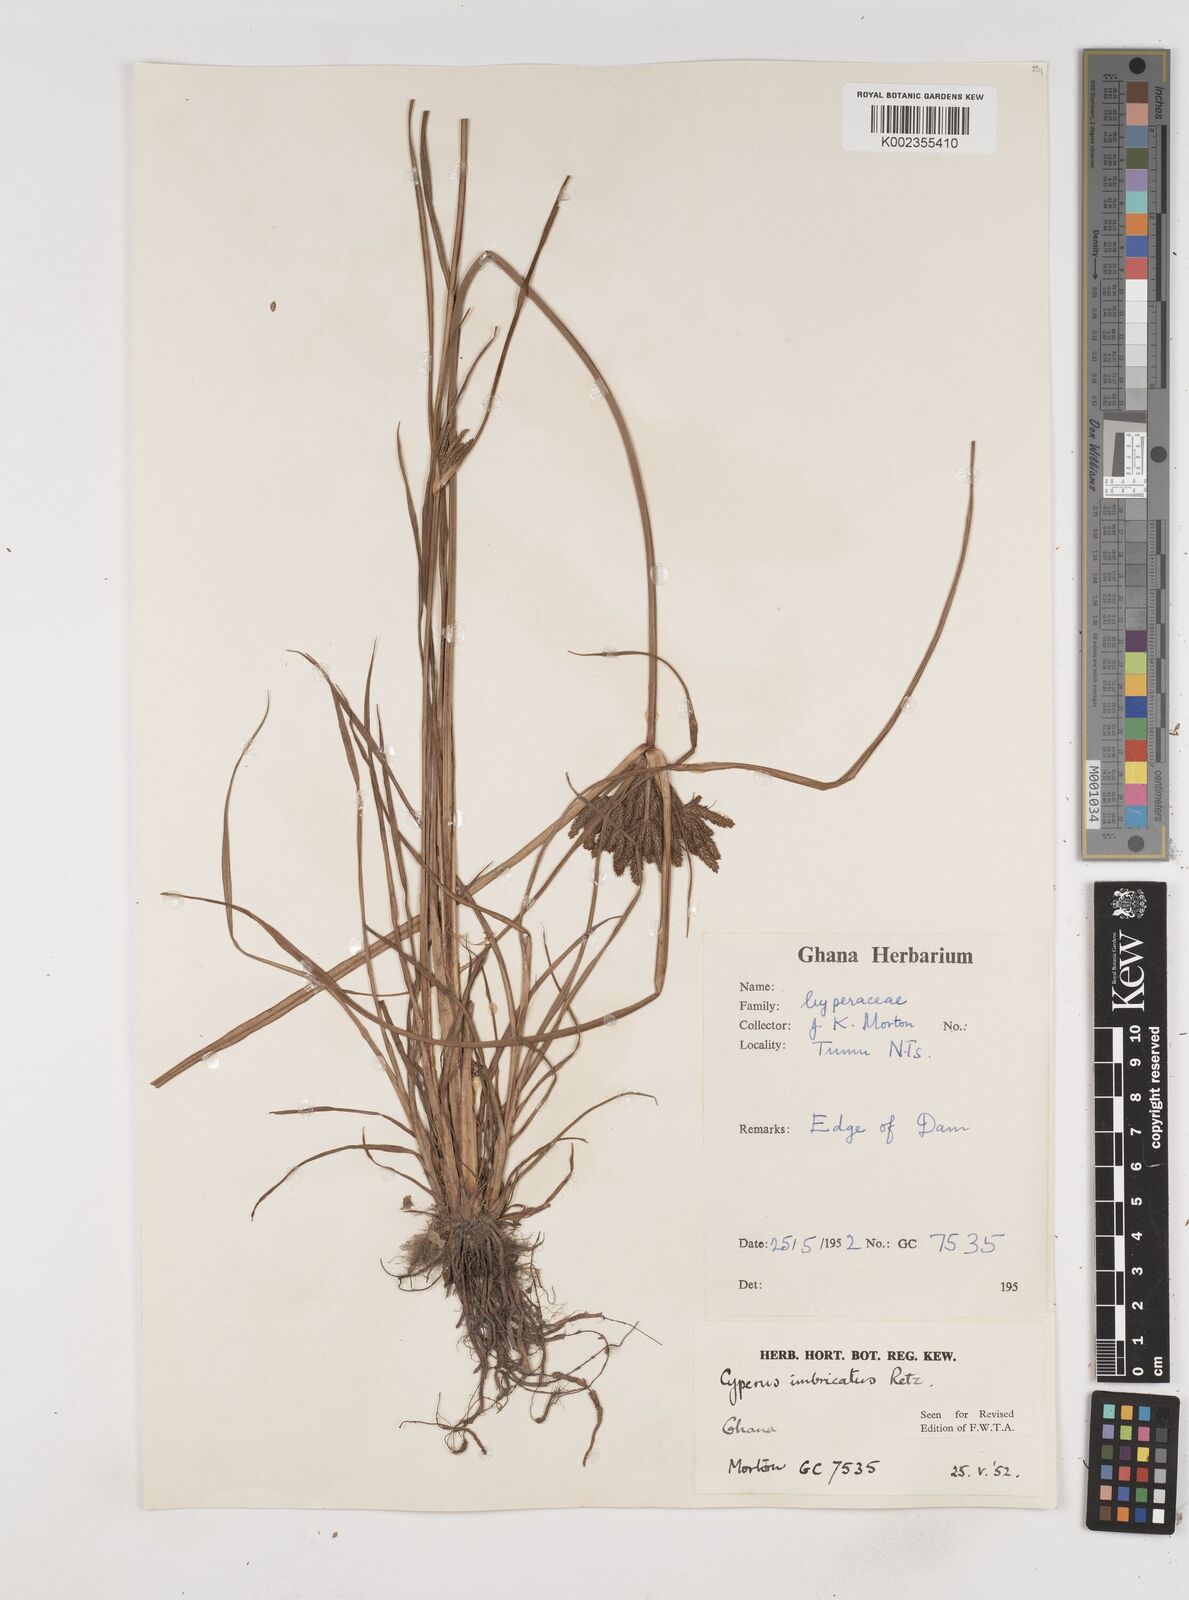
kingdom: Plantae
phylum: Tracheophyta
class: Liliopsida
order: Poales
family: Cyperaceae
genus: Cyperus
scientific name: Cyperus imbricatus
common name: Shingle flatsedge
